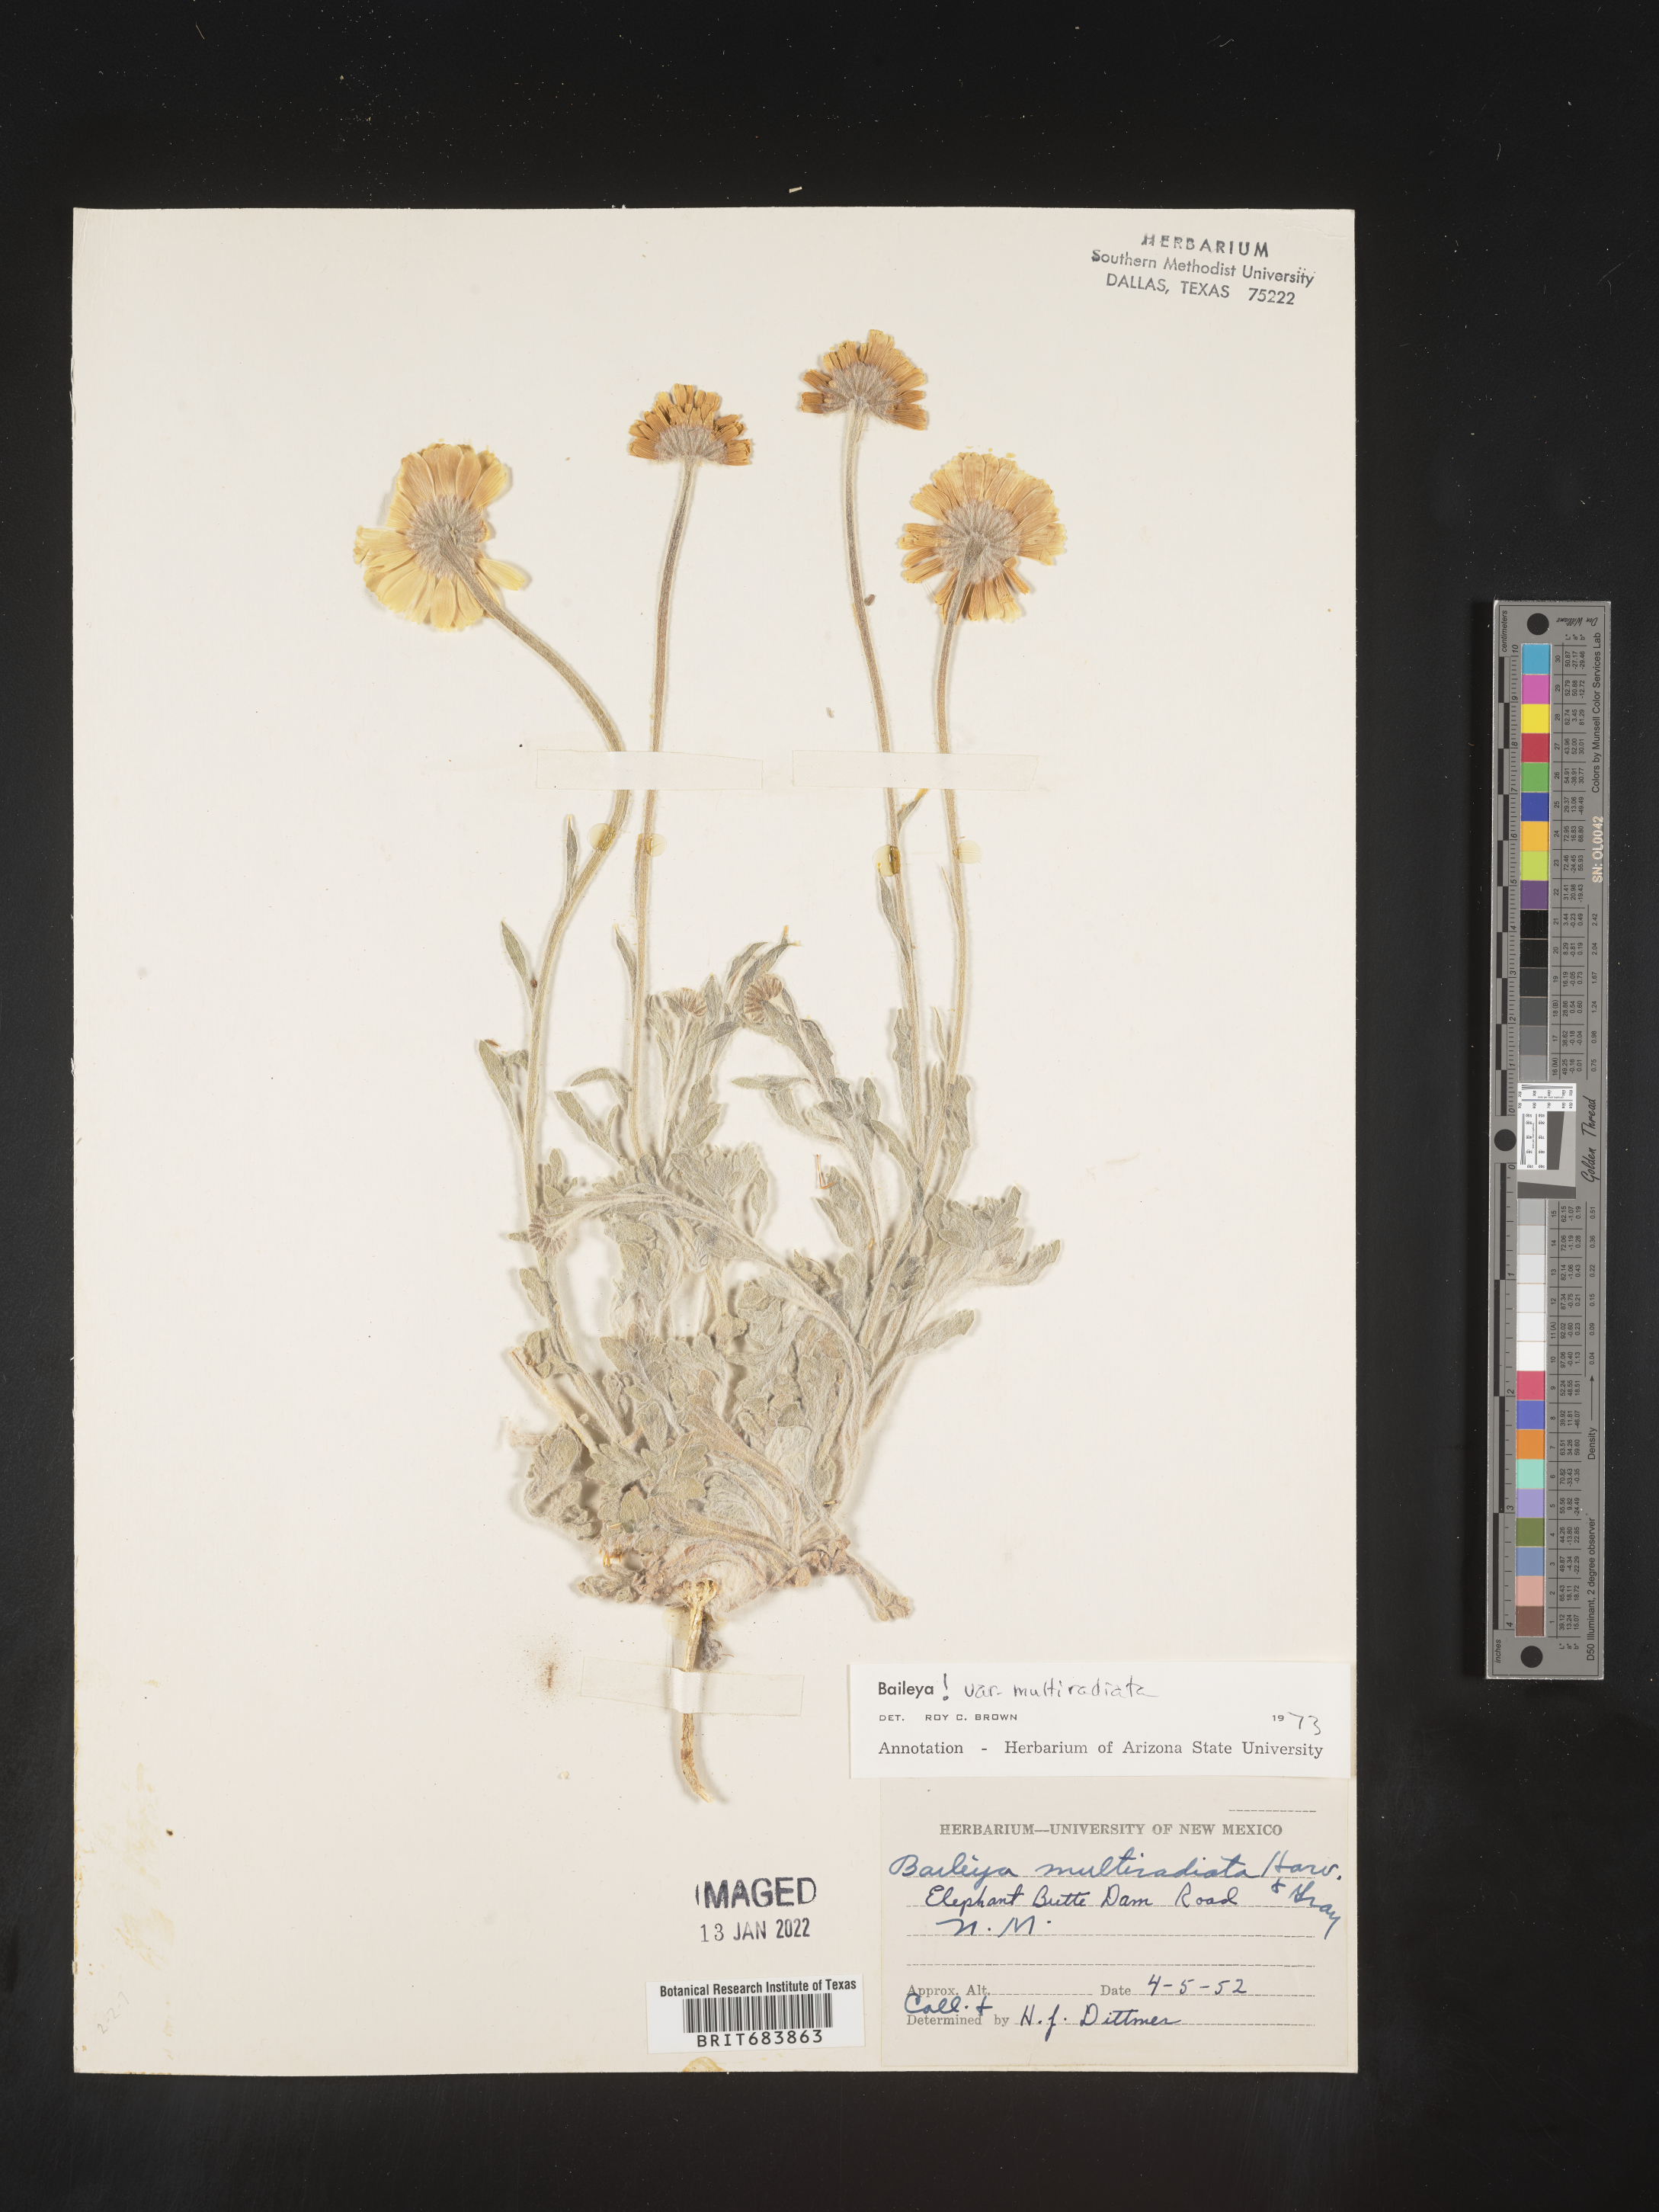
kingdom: Plantae
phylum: Tracheophyta
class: Magnoliopsida
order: Asterales
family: Asteraceae
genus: Baileya
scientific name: Baileya multiradiata
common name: Desert-marigold
